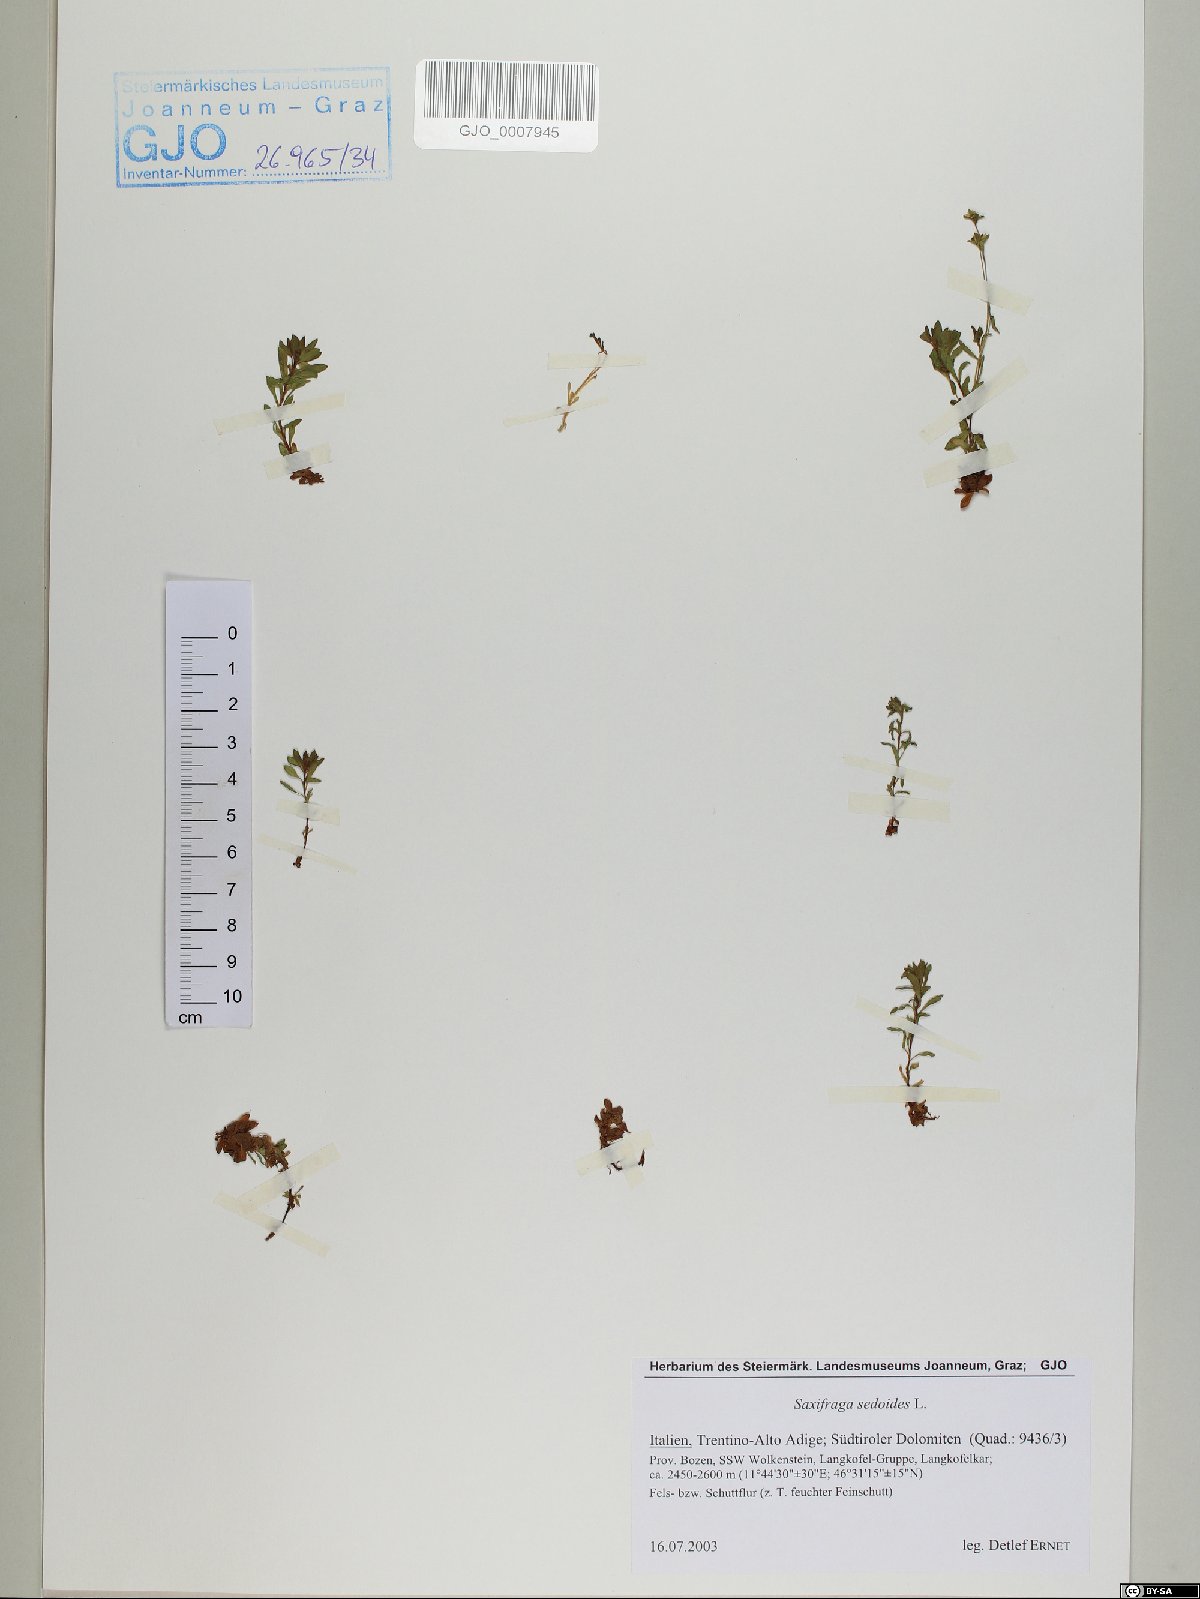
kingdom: Plantae
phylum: Tracheophyta
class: Magnoliopsida
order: Saxifragales
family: Saxifragaceae
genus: Saxifraga
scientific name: Saxifraga sedoides
